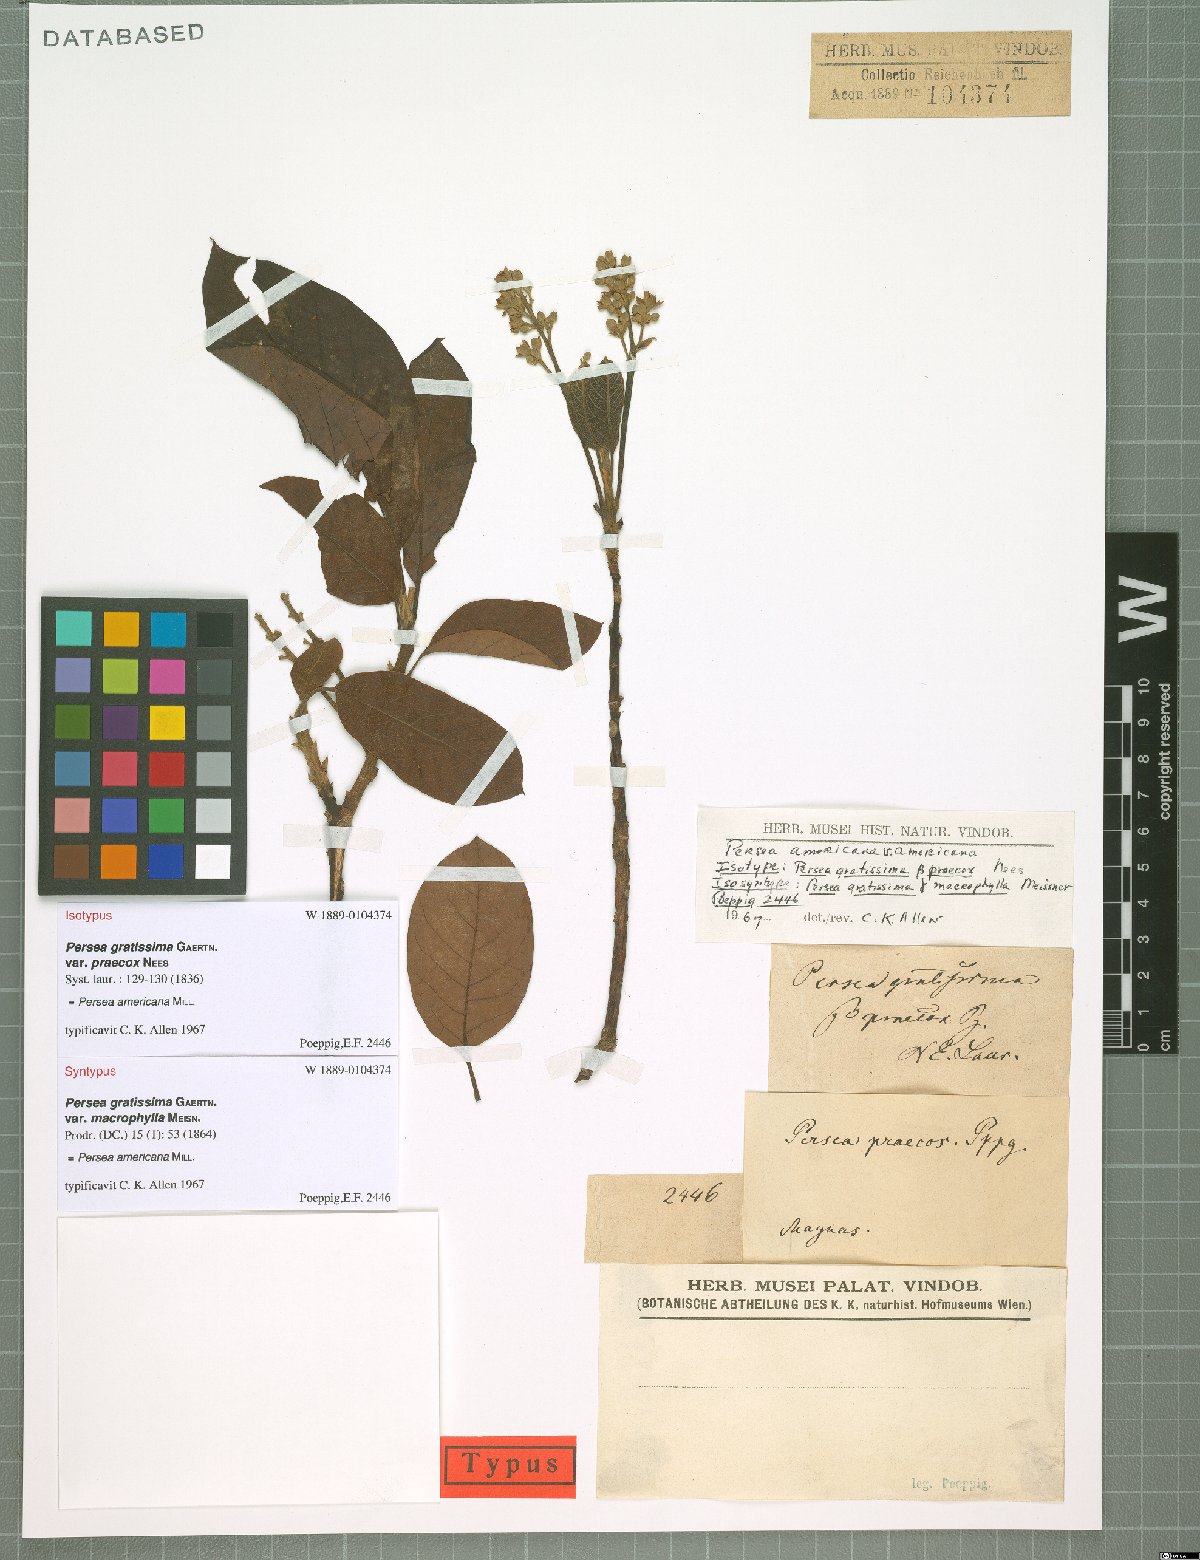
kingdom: Plantae
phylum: Tracheophyta
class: Magnoliopsida
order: Laurales
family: Lauraceae
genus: Persea
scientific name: Persea americana
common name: Avocado
